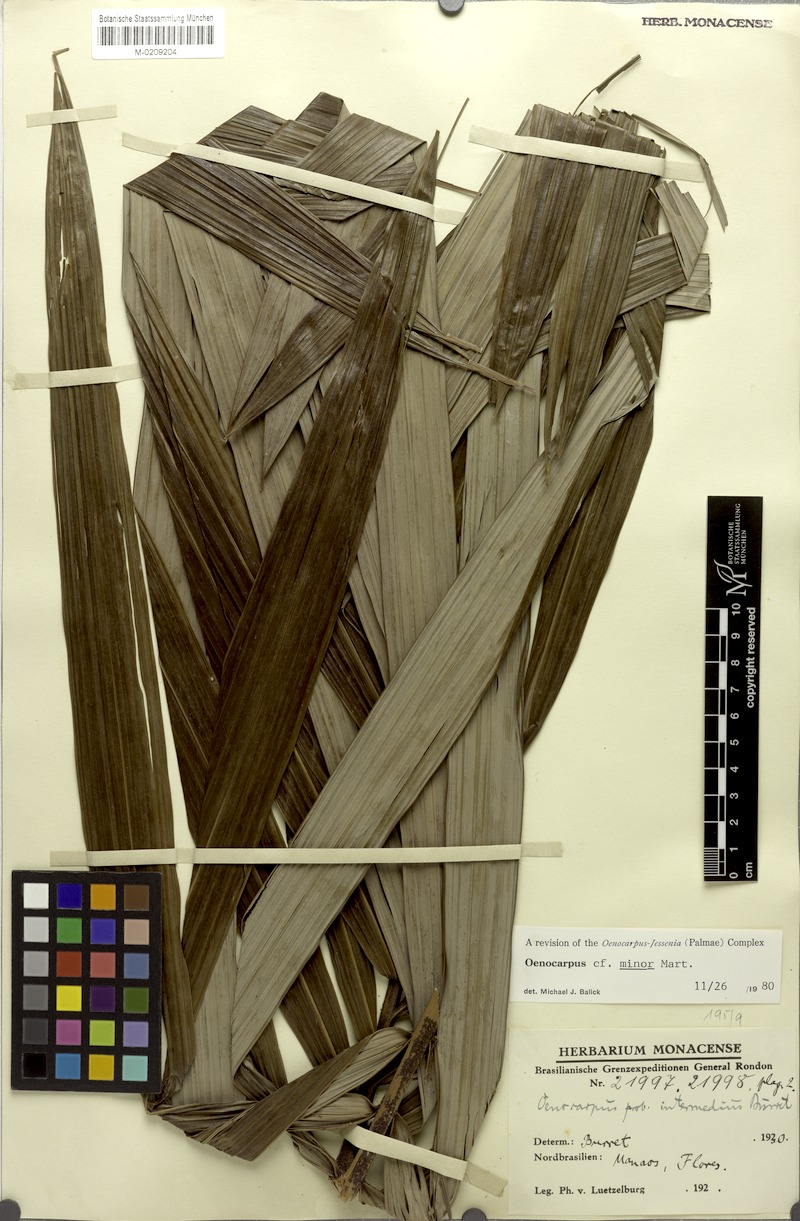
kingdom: Plantae
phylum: Tracheophyta
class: Liliopsida
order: Arecales
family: Arecaceae
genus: Oenocarpus
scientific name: Oenocarpus minor
